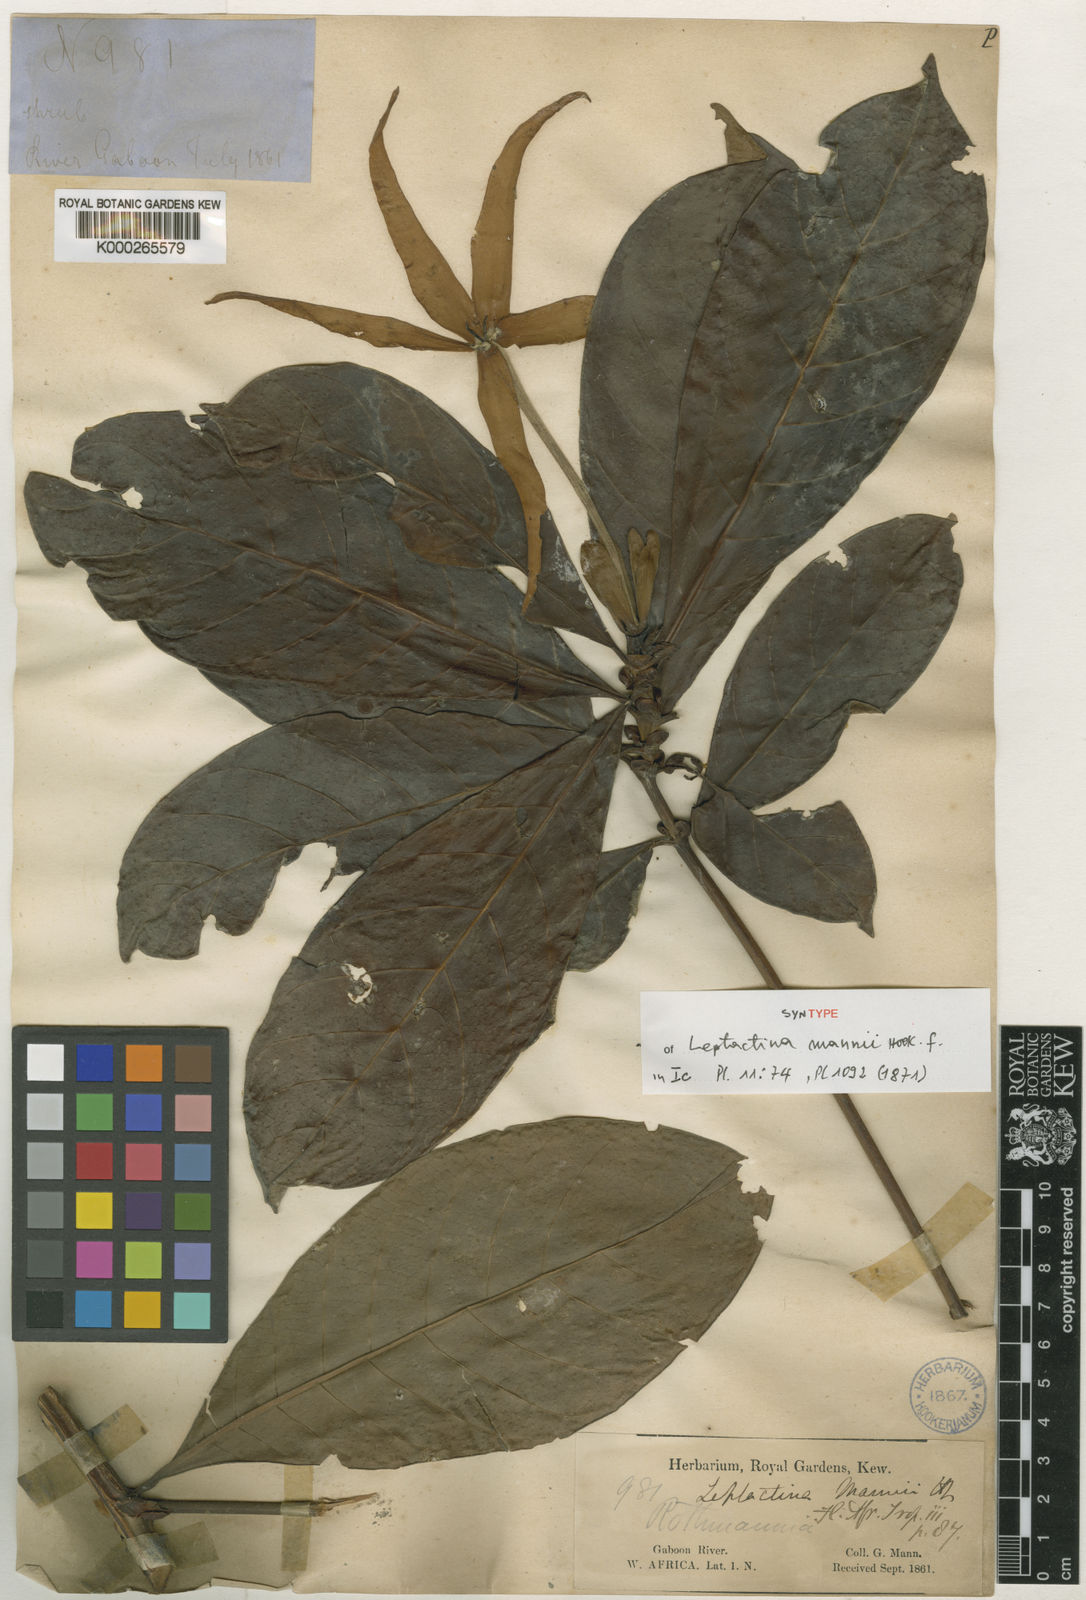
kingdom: Plantae
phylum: Tracheophyta
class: Magnoliopsida
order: Gentianales
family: Rubiaceae
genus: Leptactina
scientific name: Leptactina mannii
